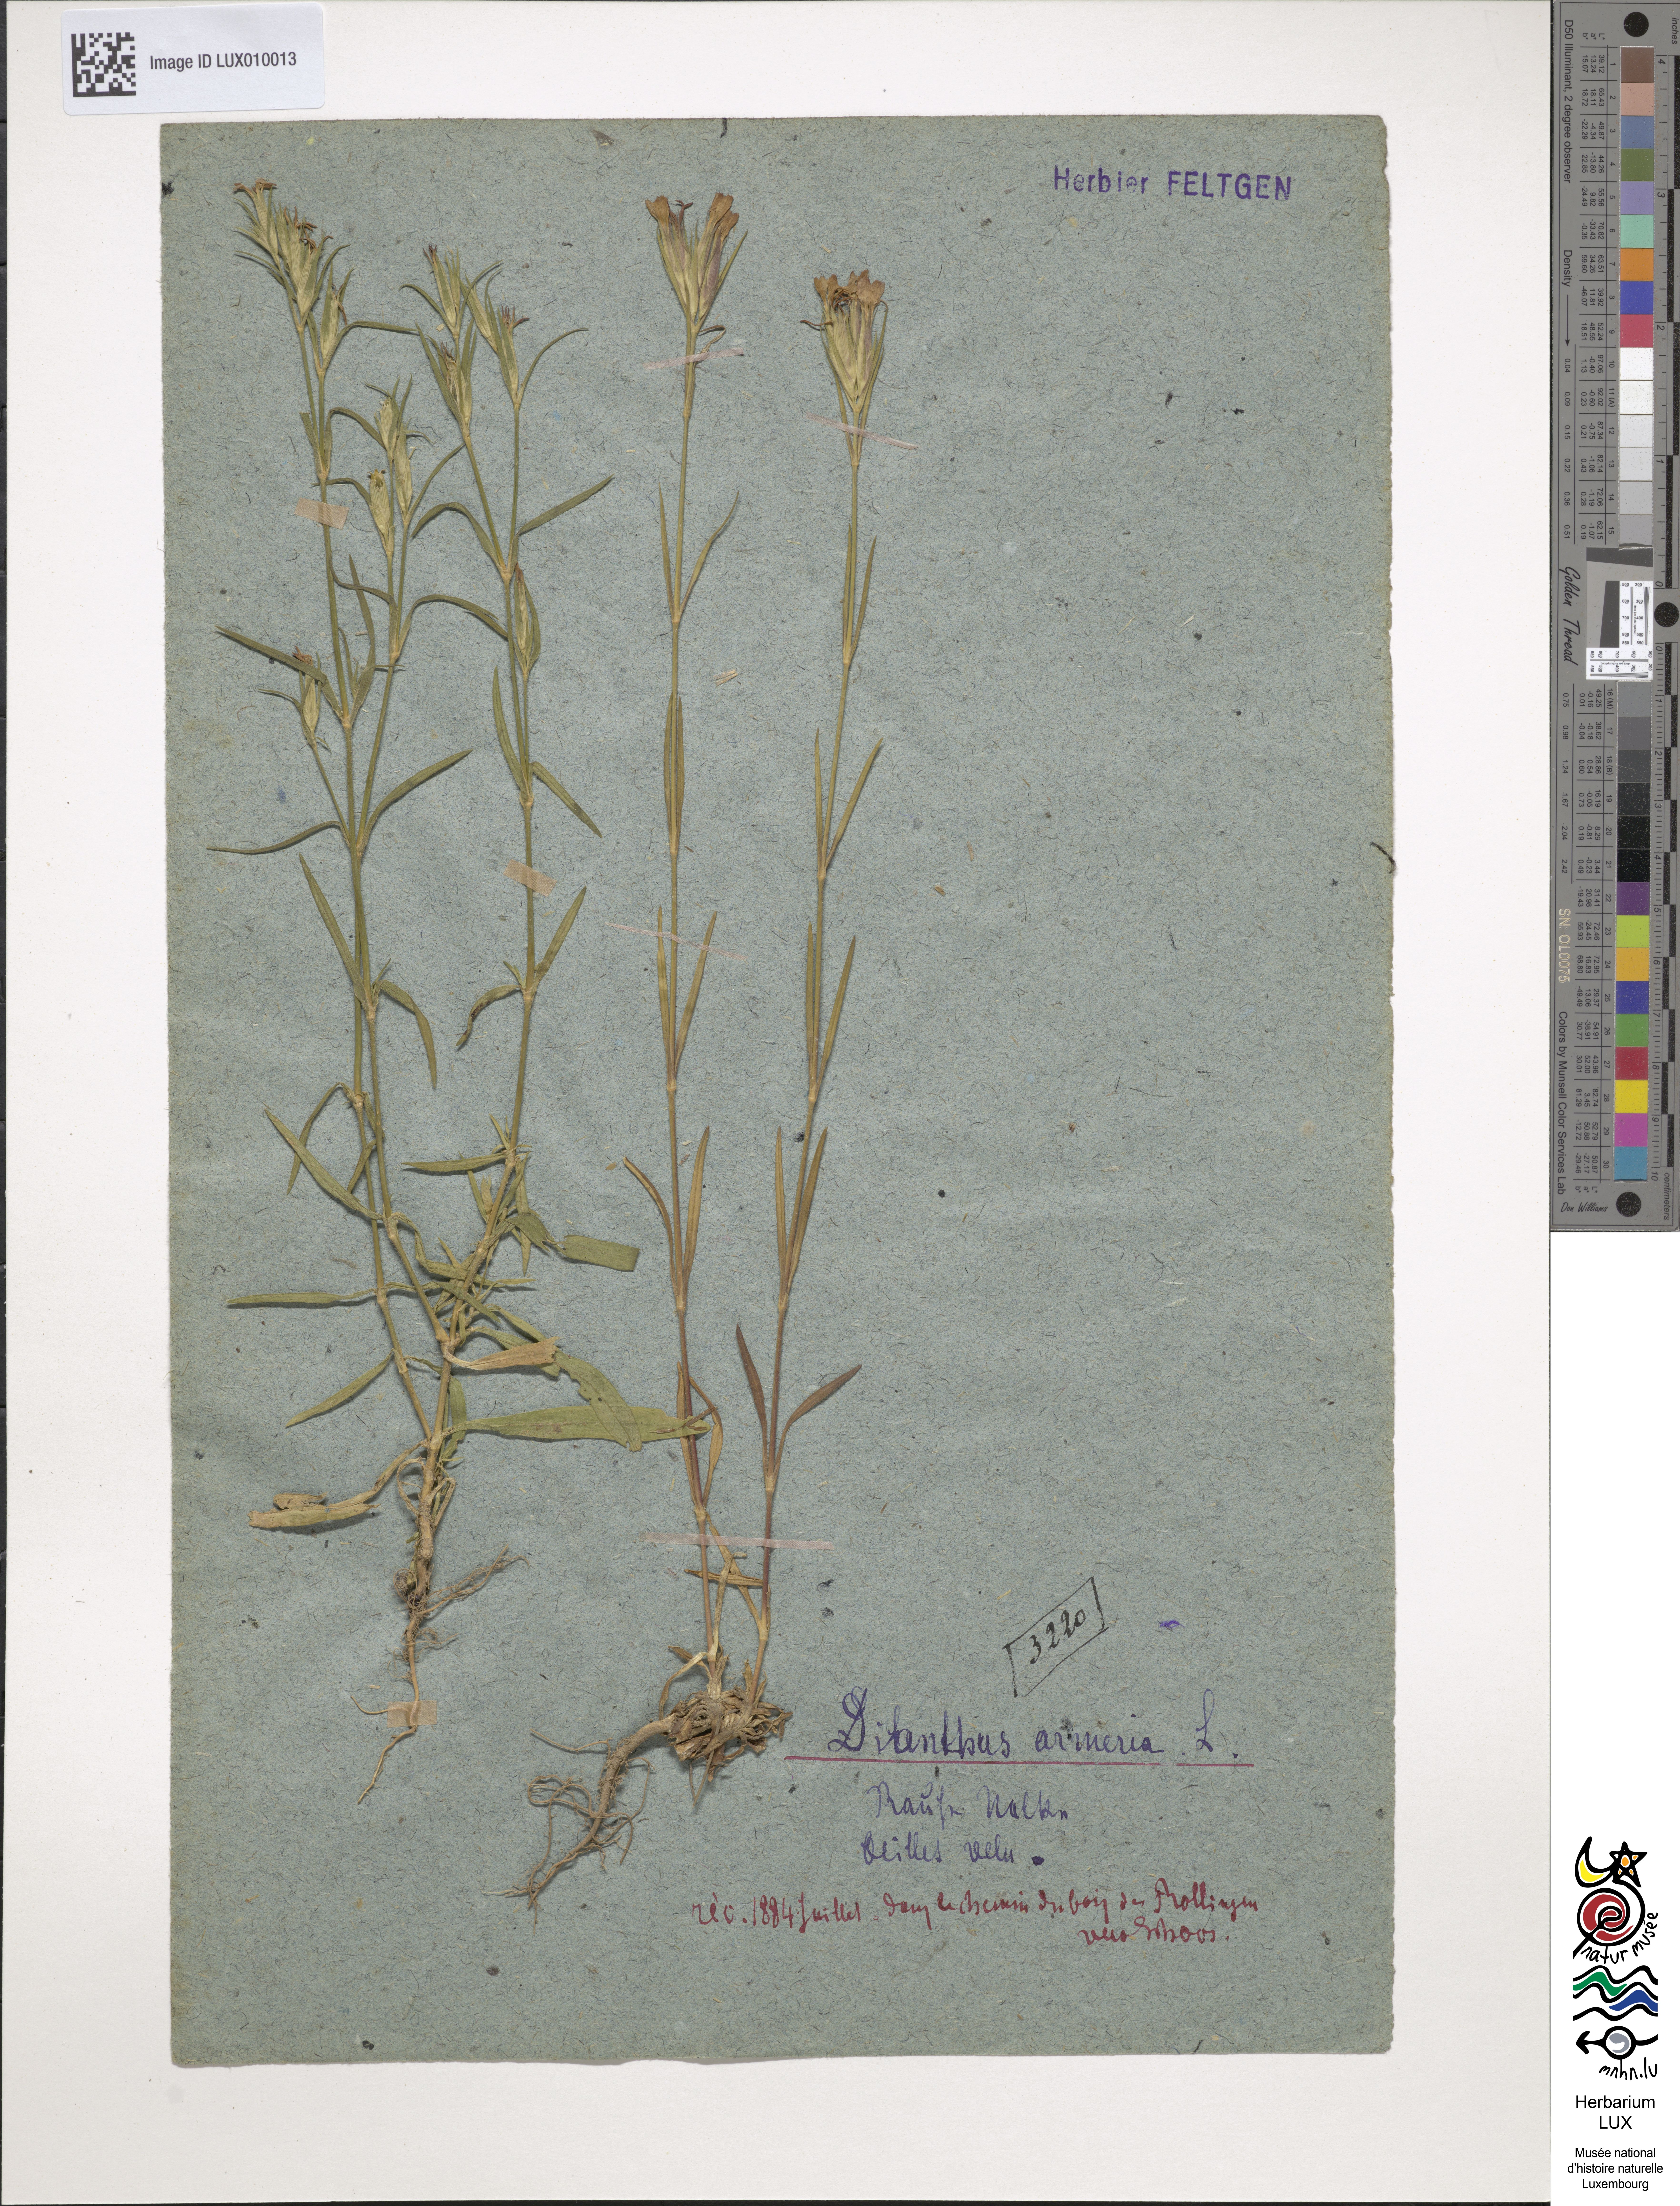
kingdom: Plantae
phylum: Tracheophyta
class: Magnoliopsida
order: Caryophyllales
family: Caryophyllaceae
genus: Dianthus
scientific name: Dianthus armeria
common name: Deptford pink
